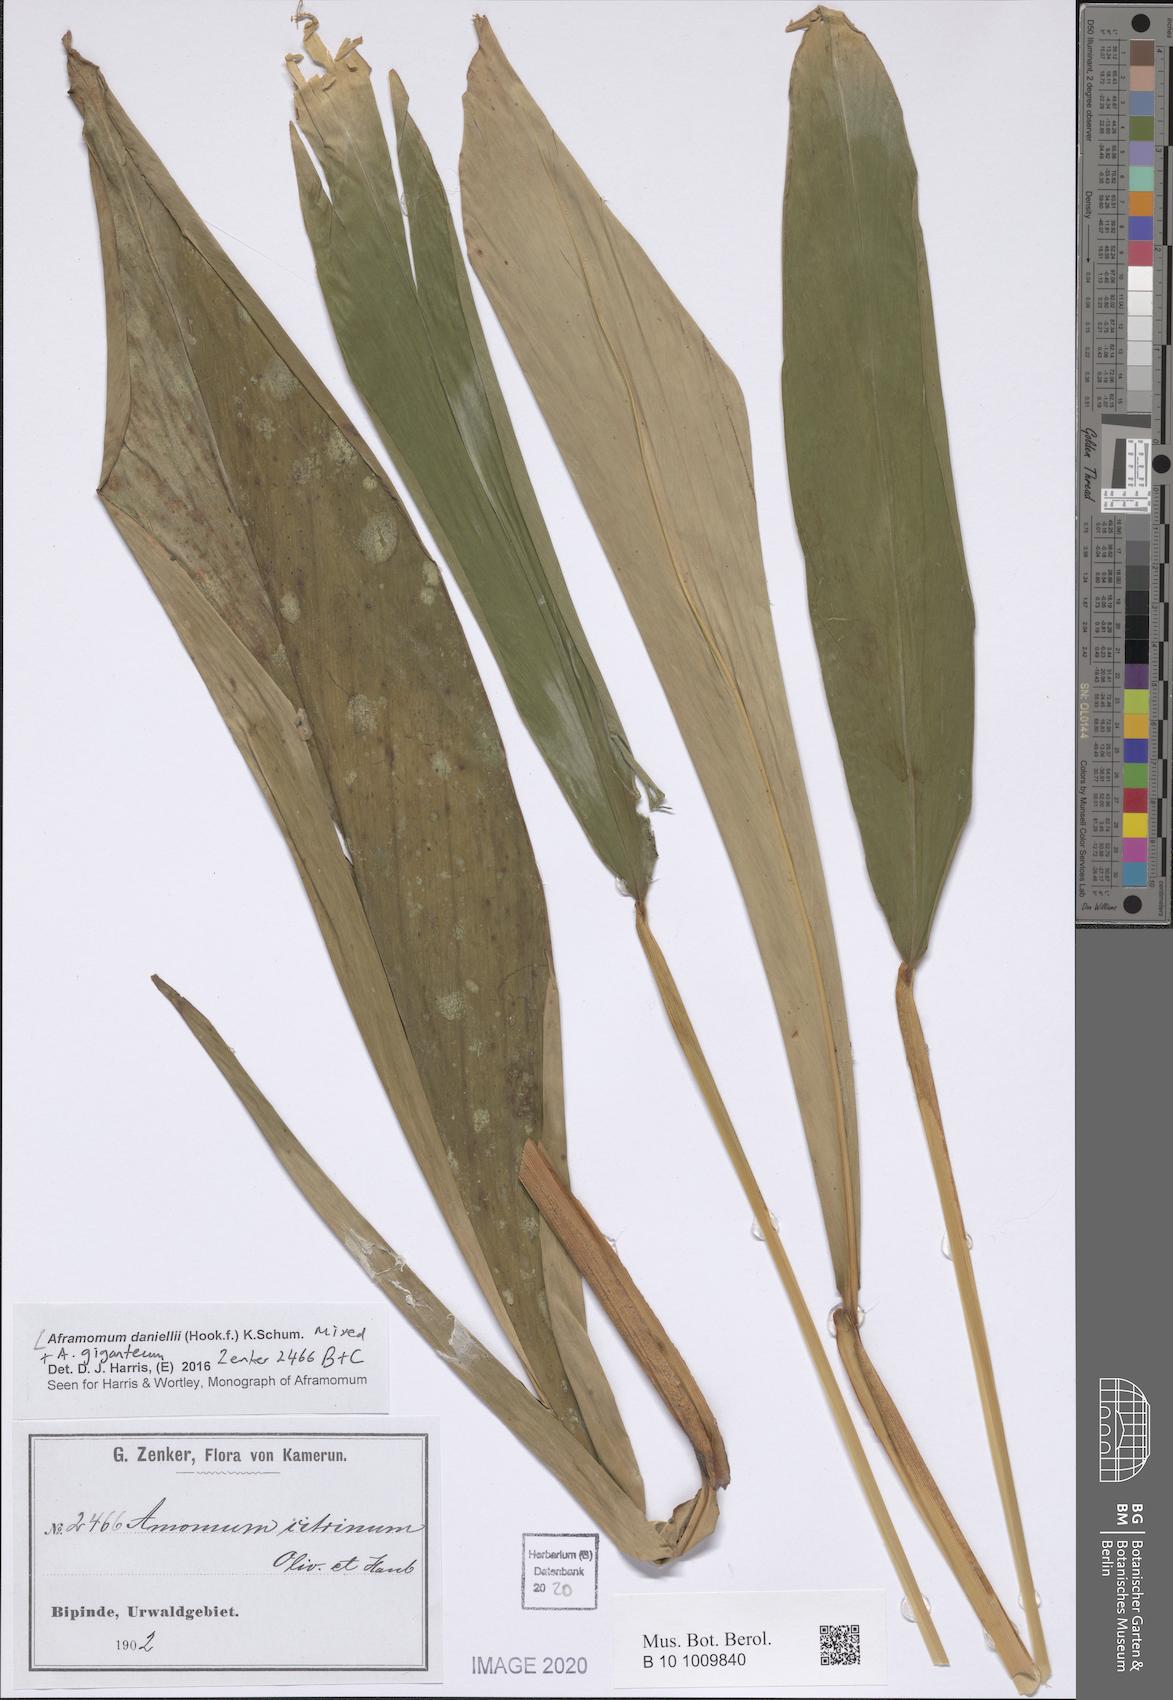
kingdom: Plantae
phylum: Tracheophyta
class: Liliopsida
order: Zingiberales
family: Zingiberaceae
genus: Aframomum
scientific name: Aframomum daniellii
